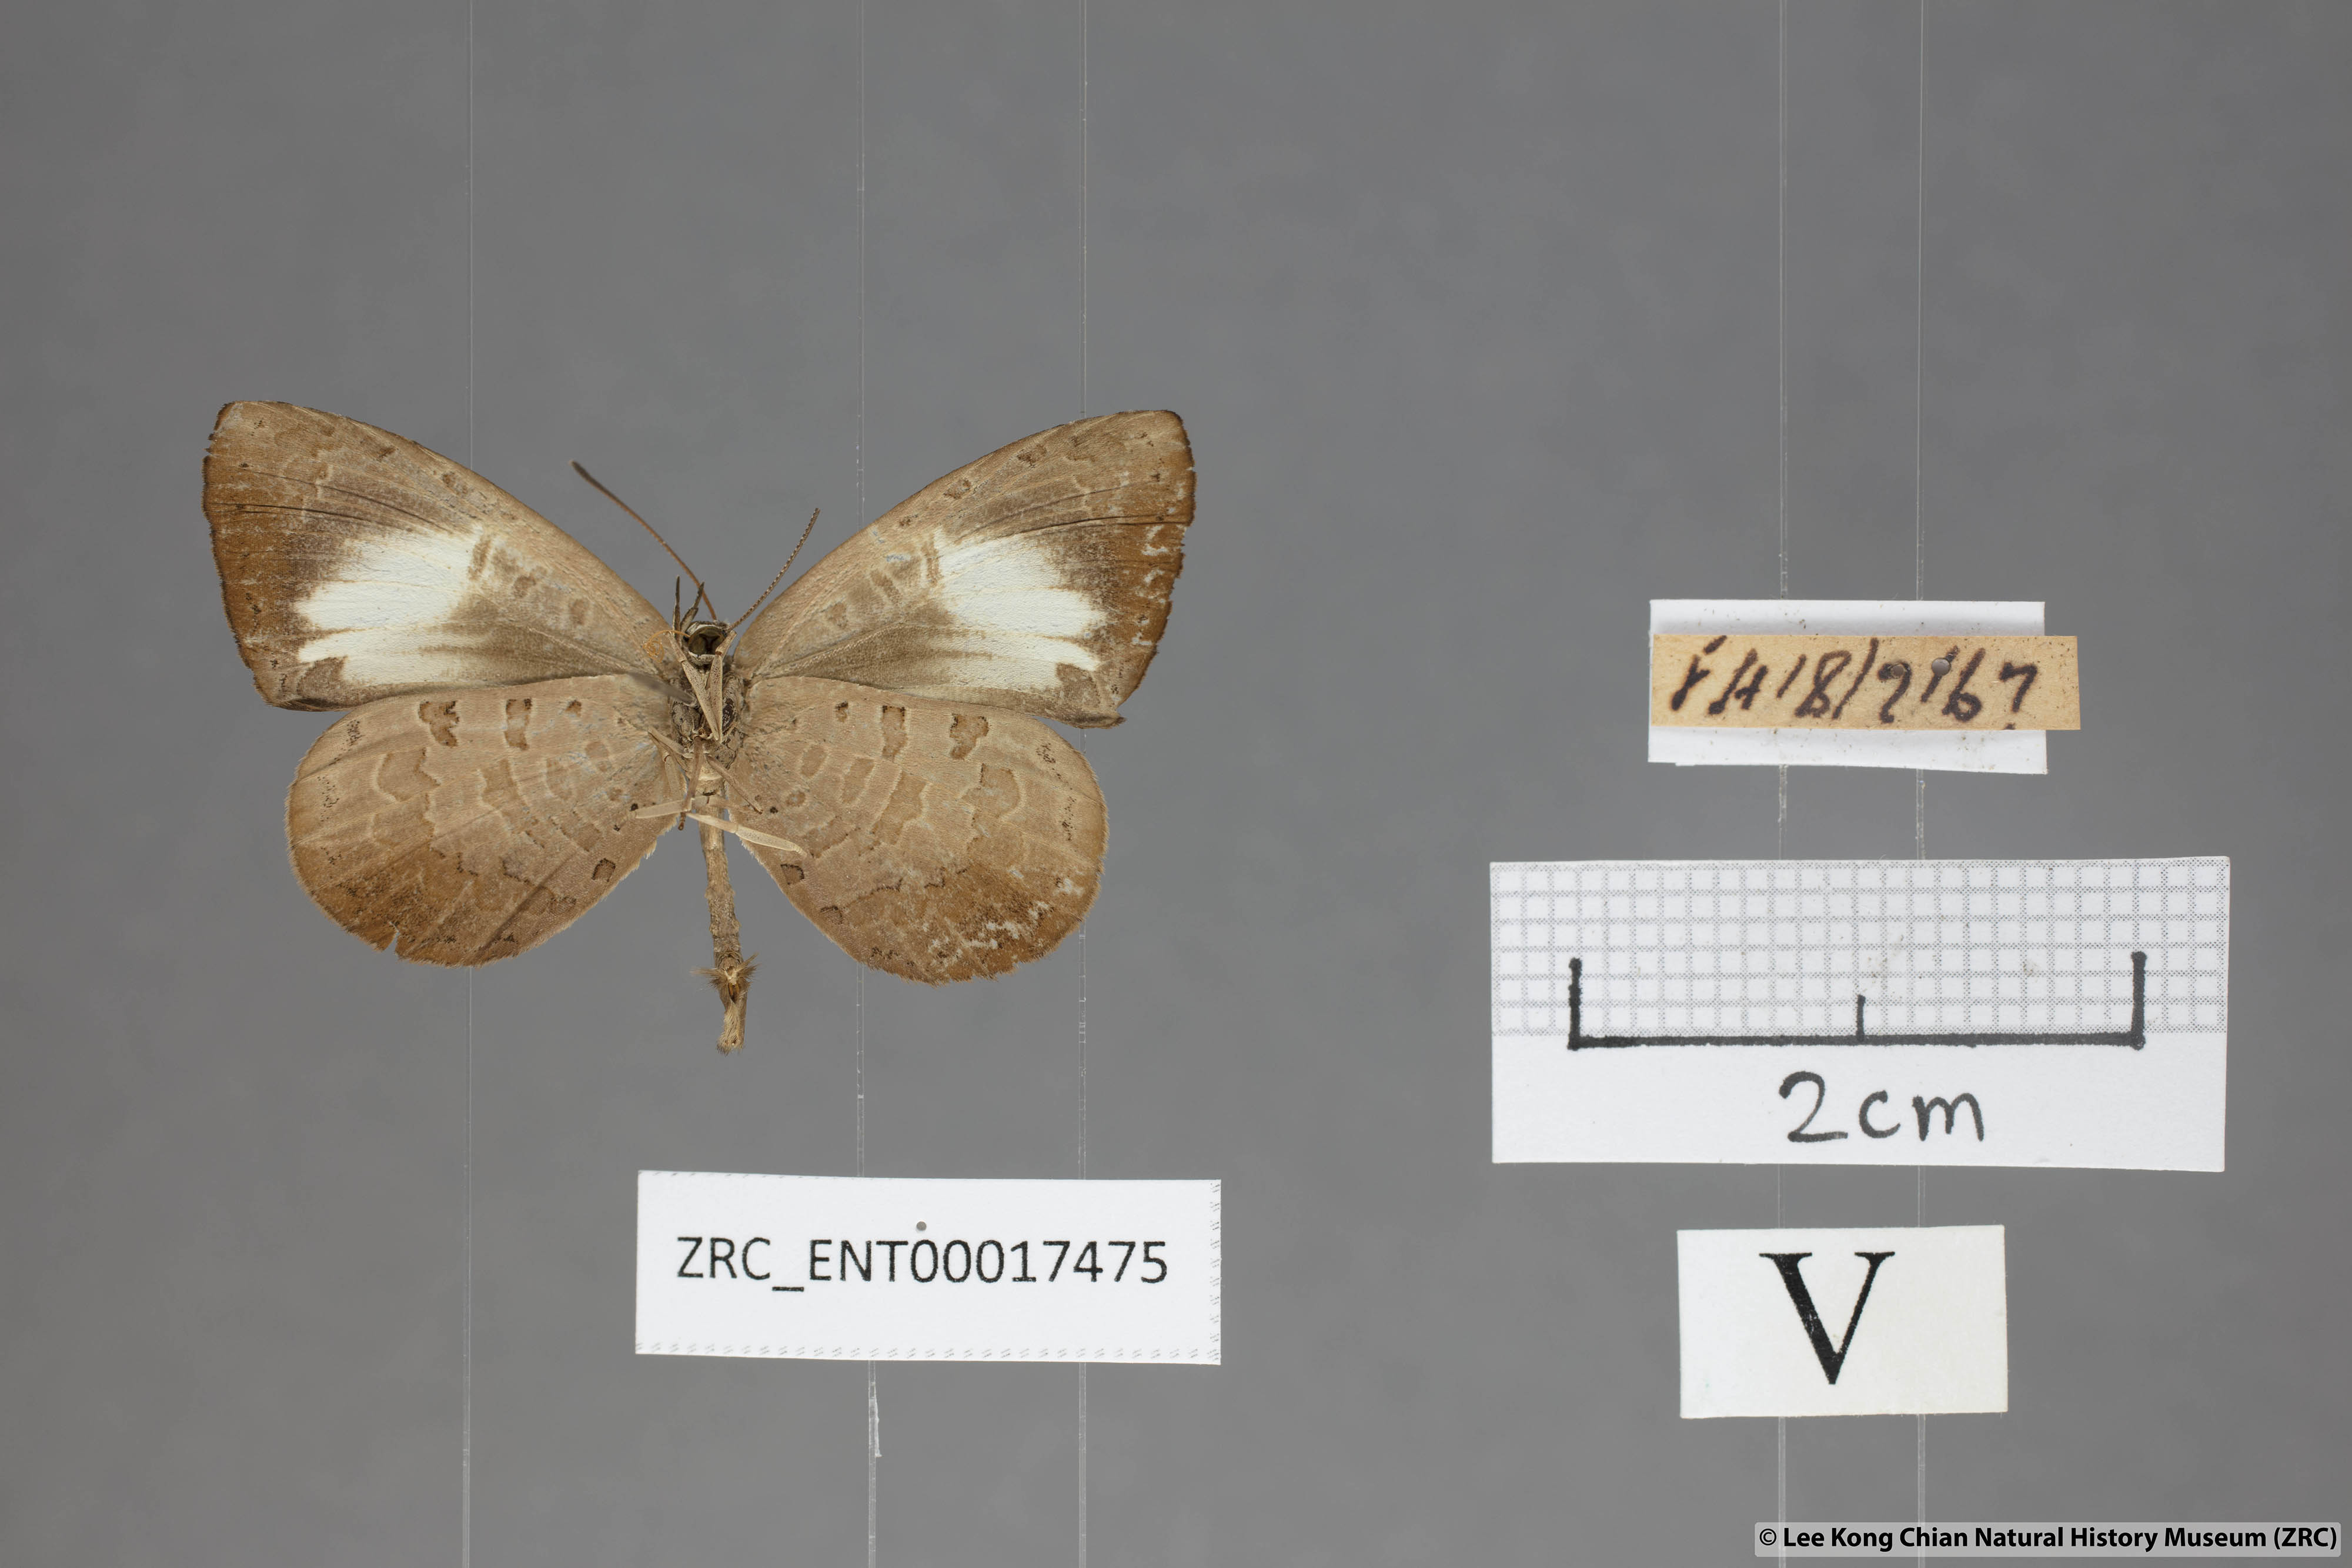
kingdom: Animalia
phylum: Arthropoda
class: Insecta
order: Lepidoptera
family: Lycaenidae
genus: Miletus
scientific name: Miletus nymphis
